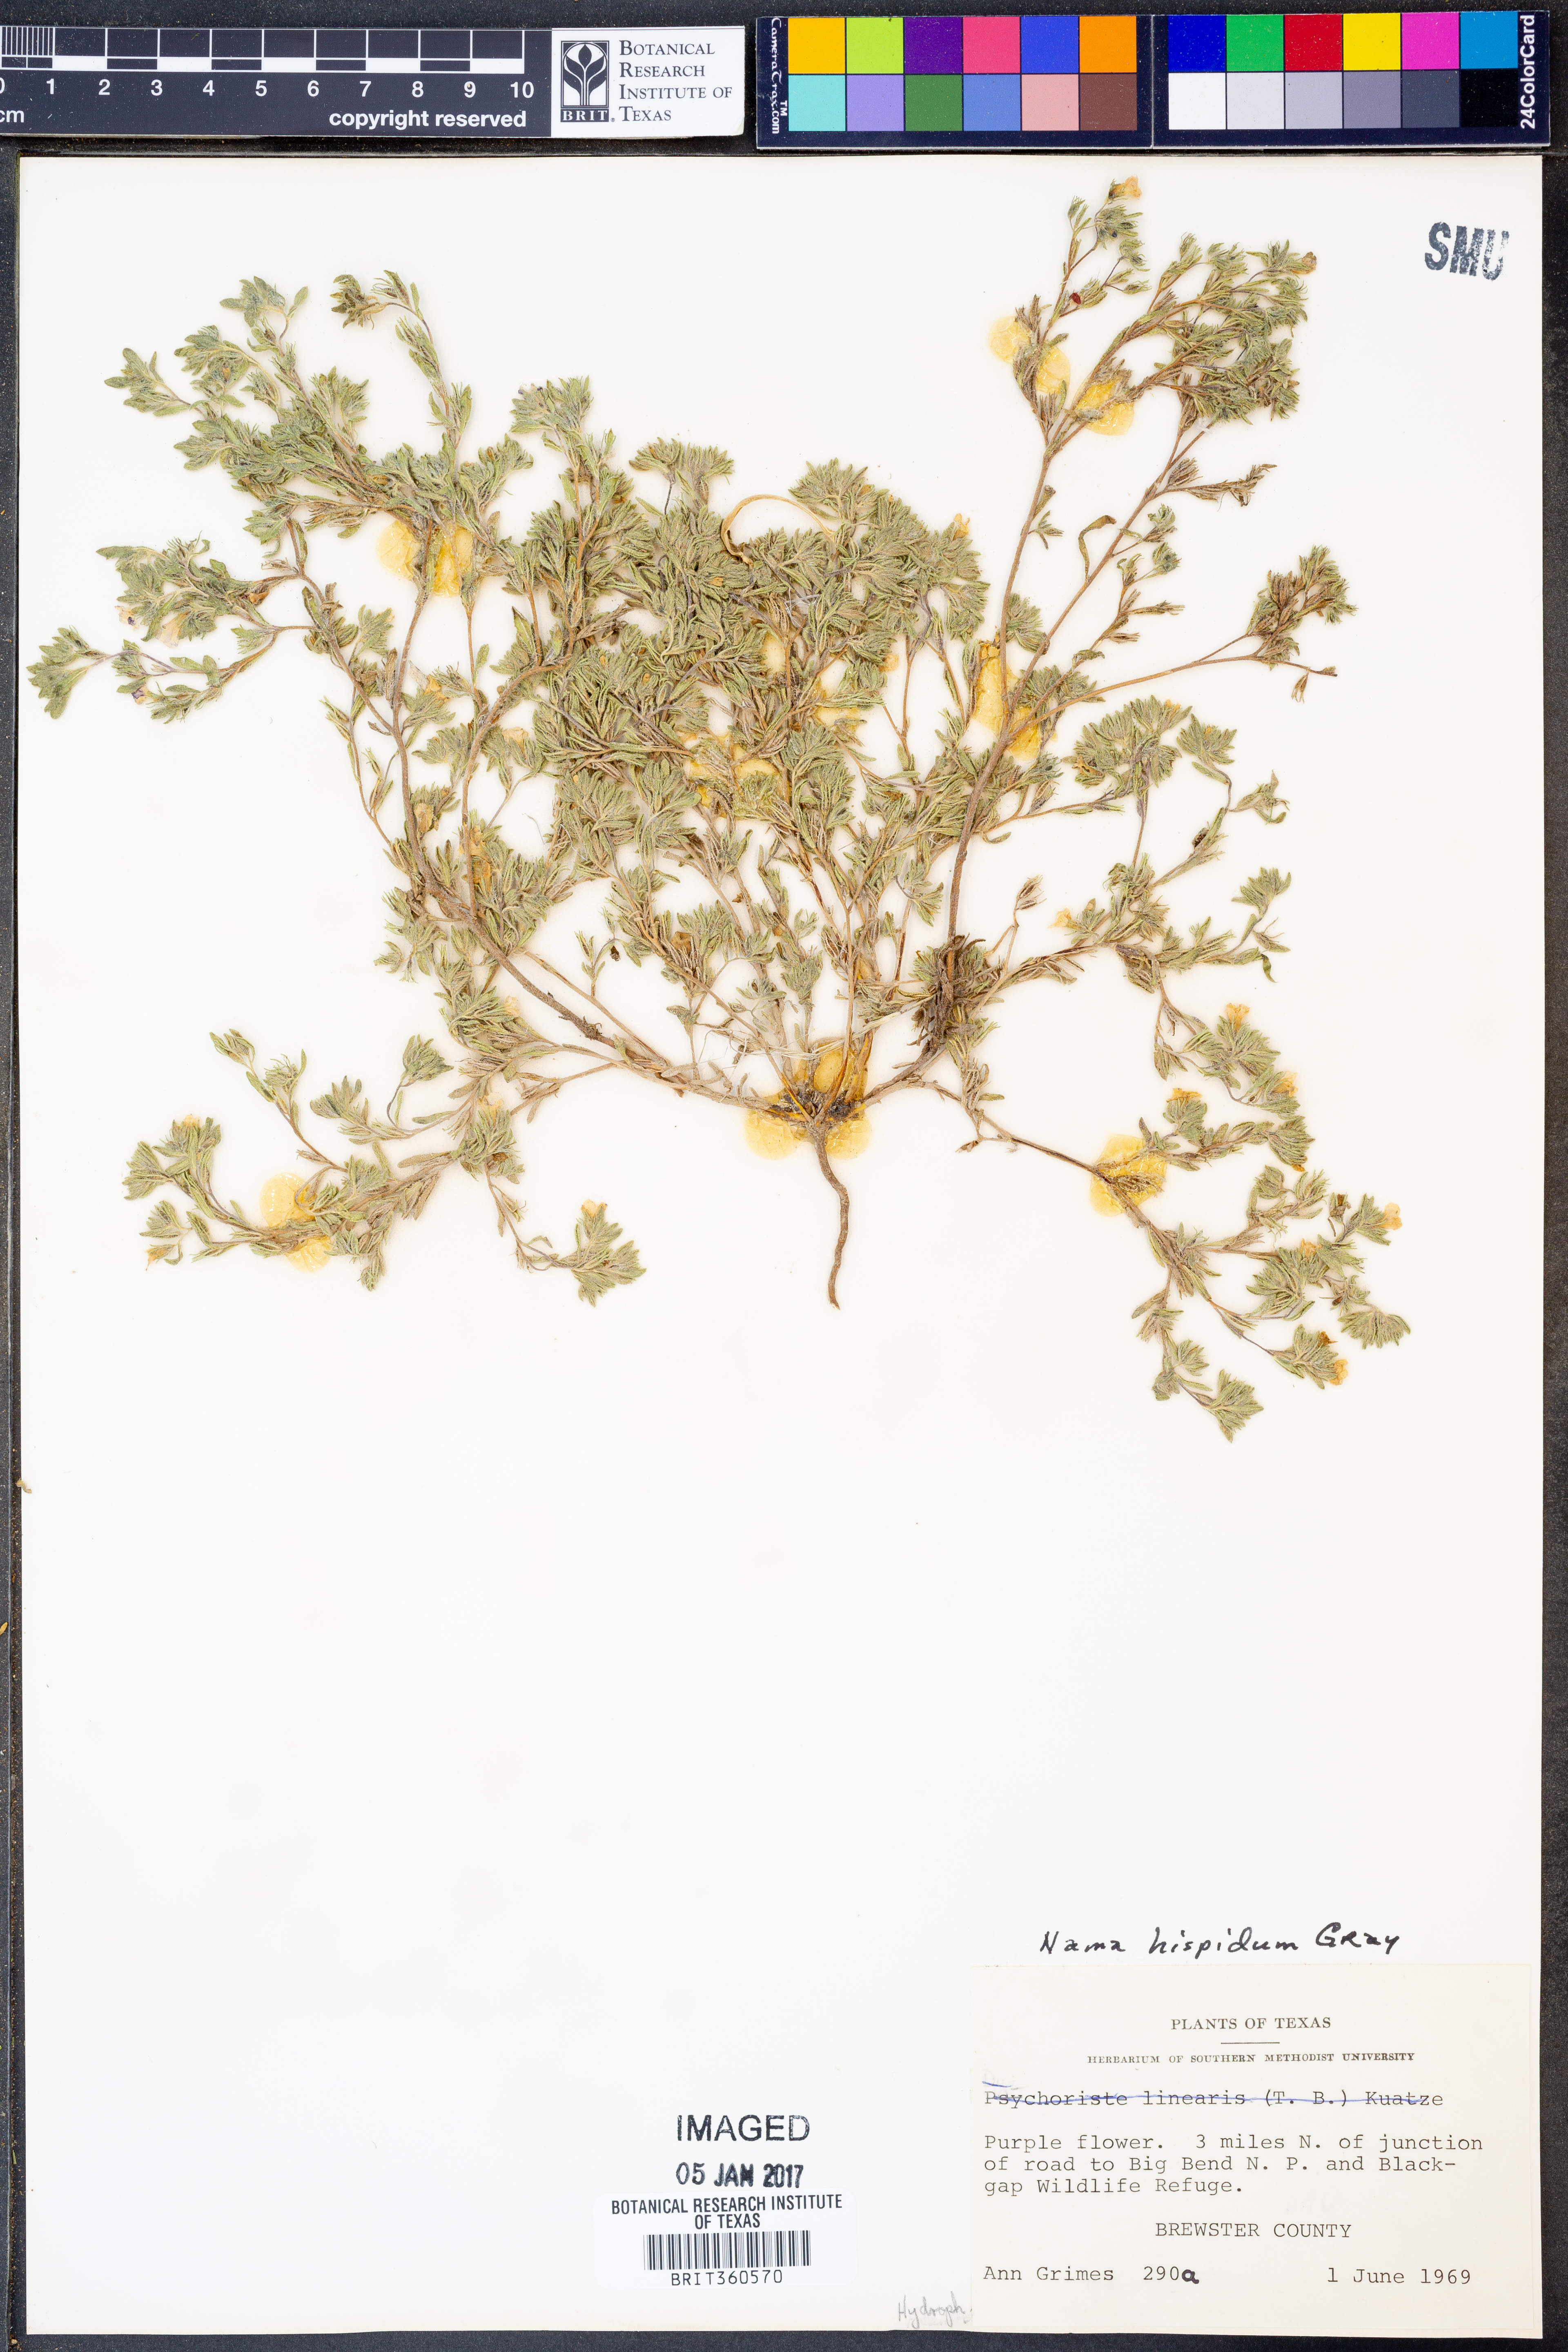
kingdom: Plantae
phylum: Tracheophyta
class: Magnoliopsida
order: Boraginales
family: Namaceae
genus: Nama
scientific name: Nama hispida
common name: Bristly nama
